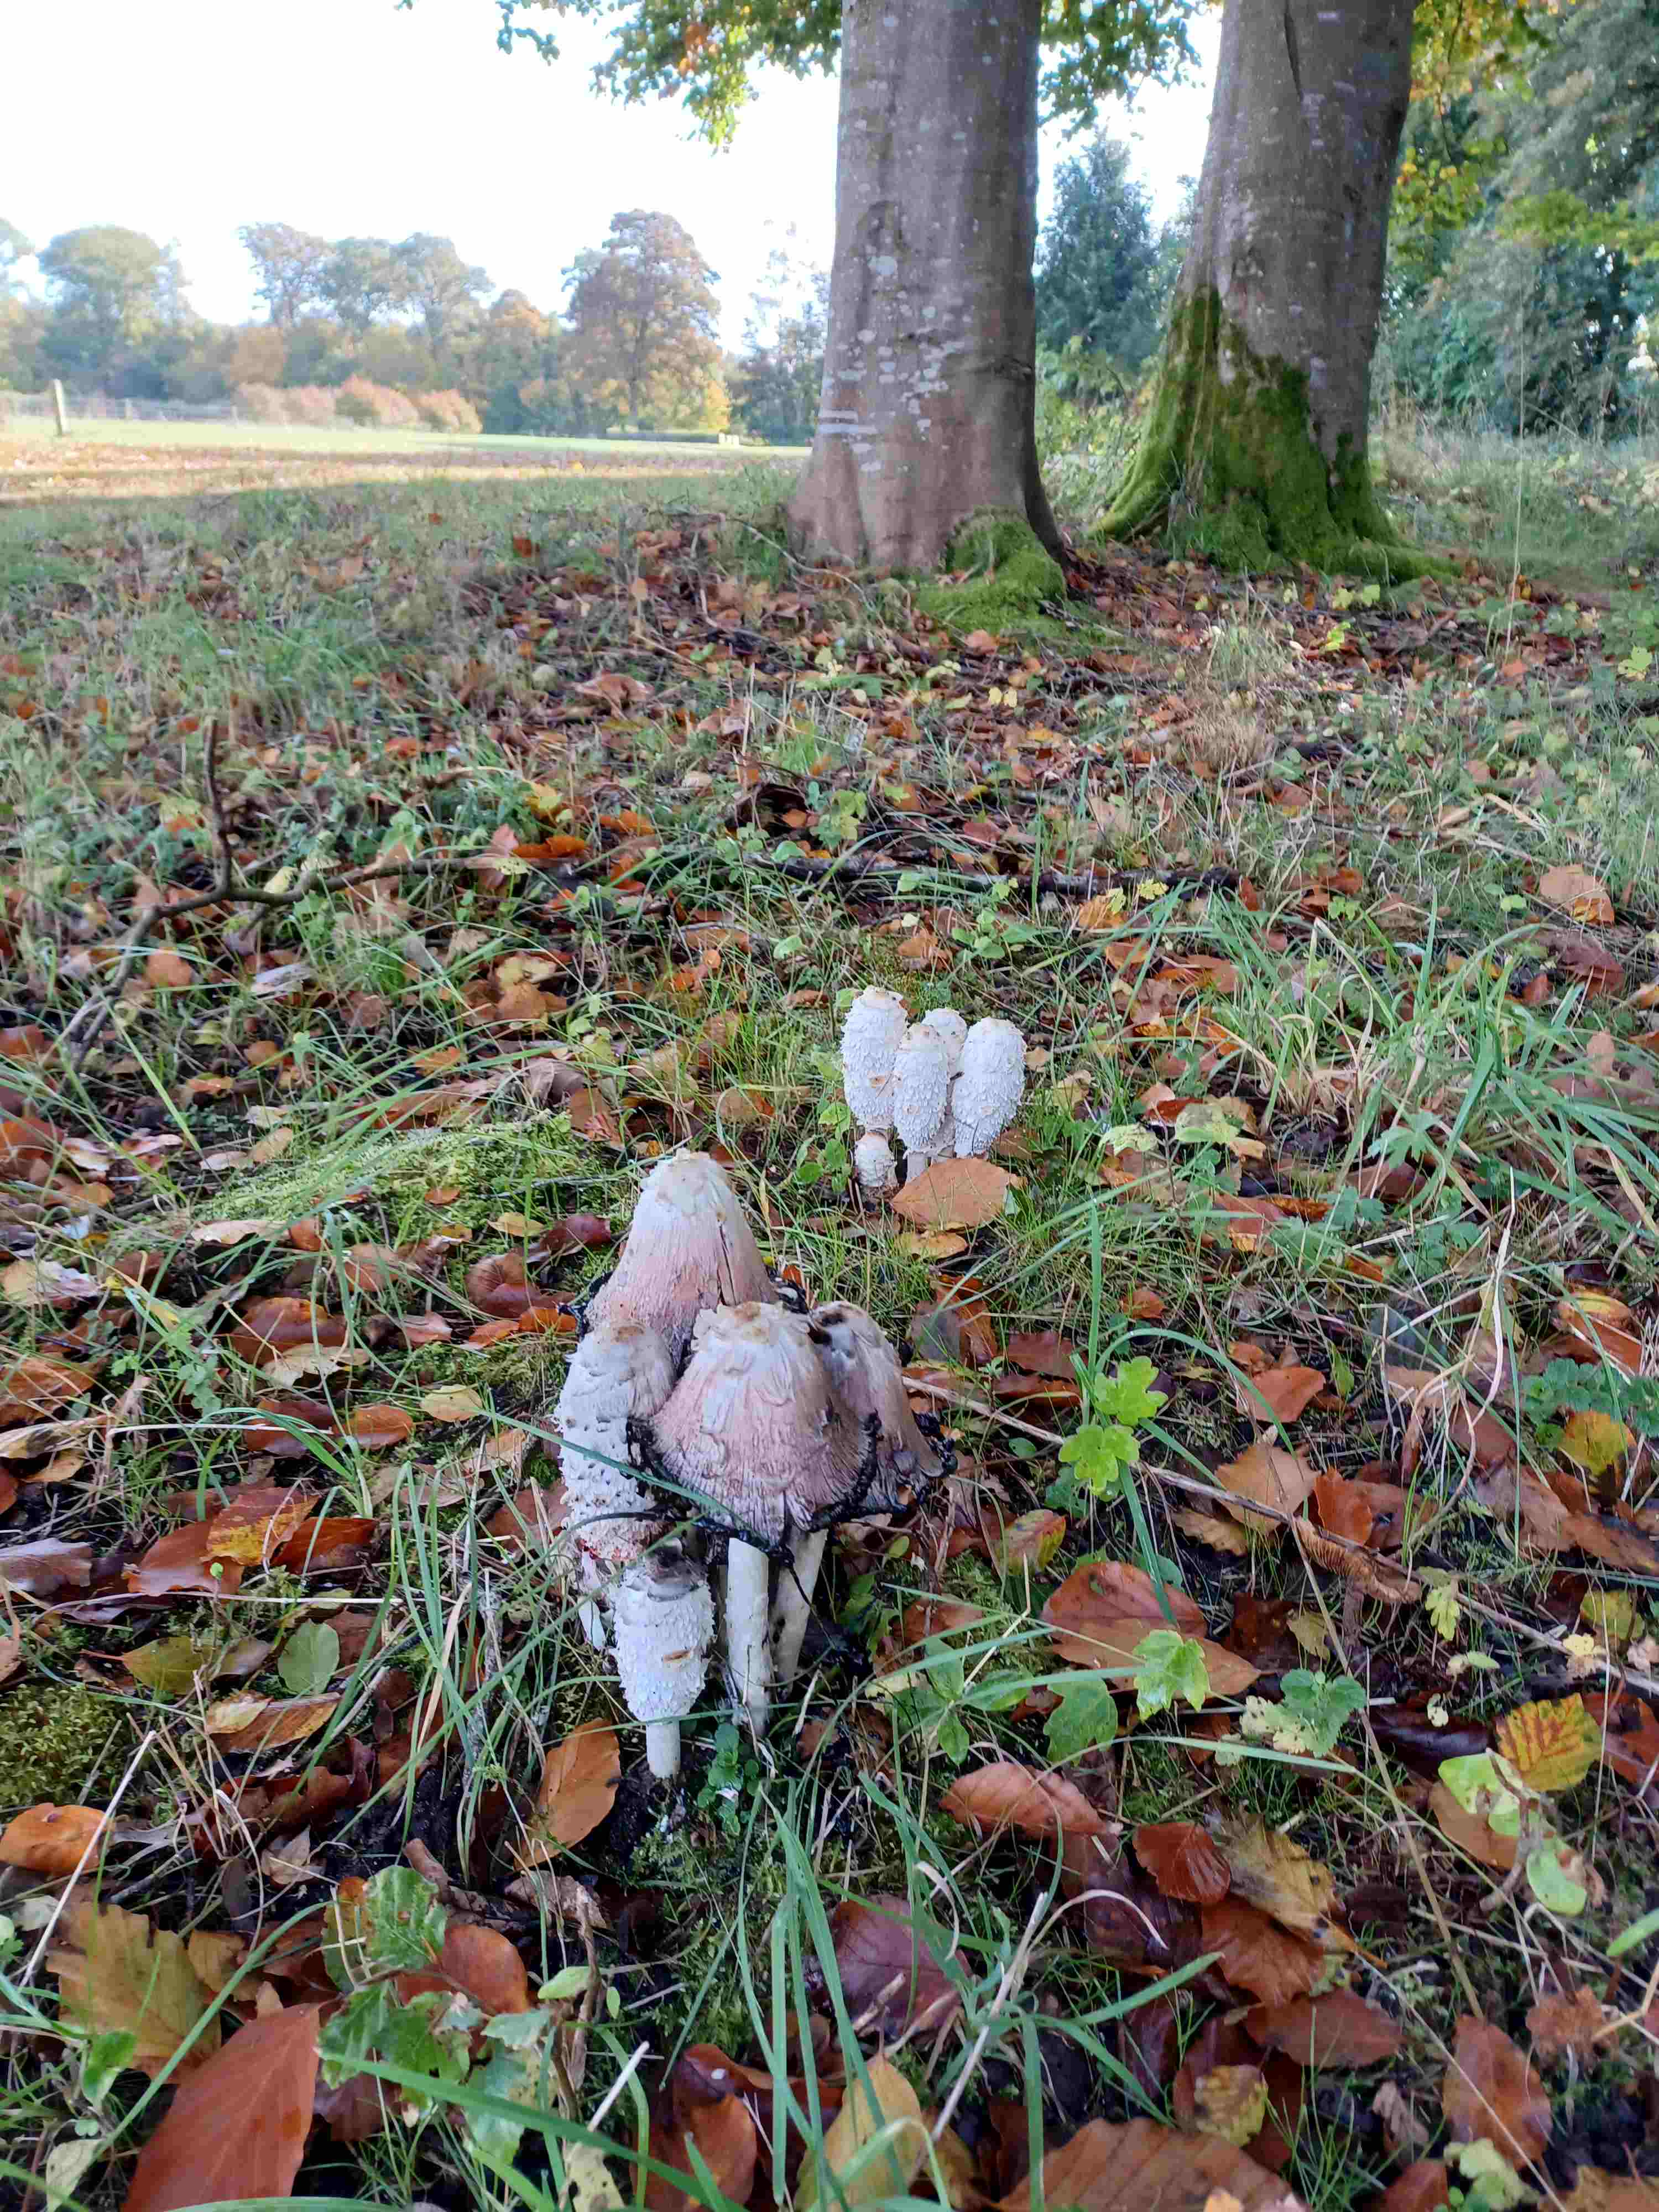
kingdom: Fungi
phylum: Basidiomycota
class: Agaricomycetes
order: Agaricales
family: Agaricaceae
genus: Coprinus
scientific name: Coprinus comatus
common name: stor parykhat
